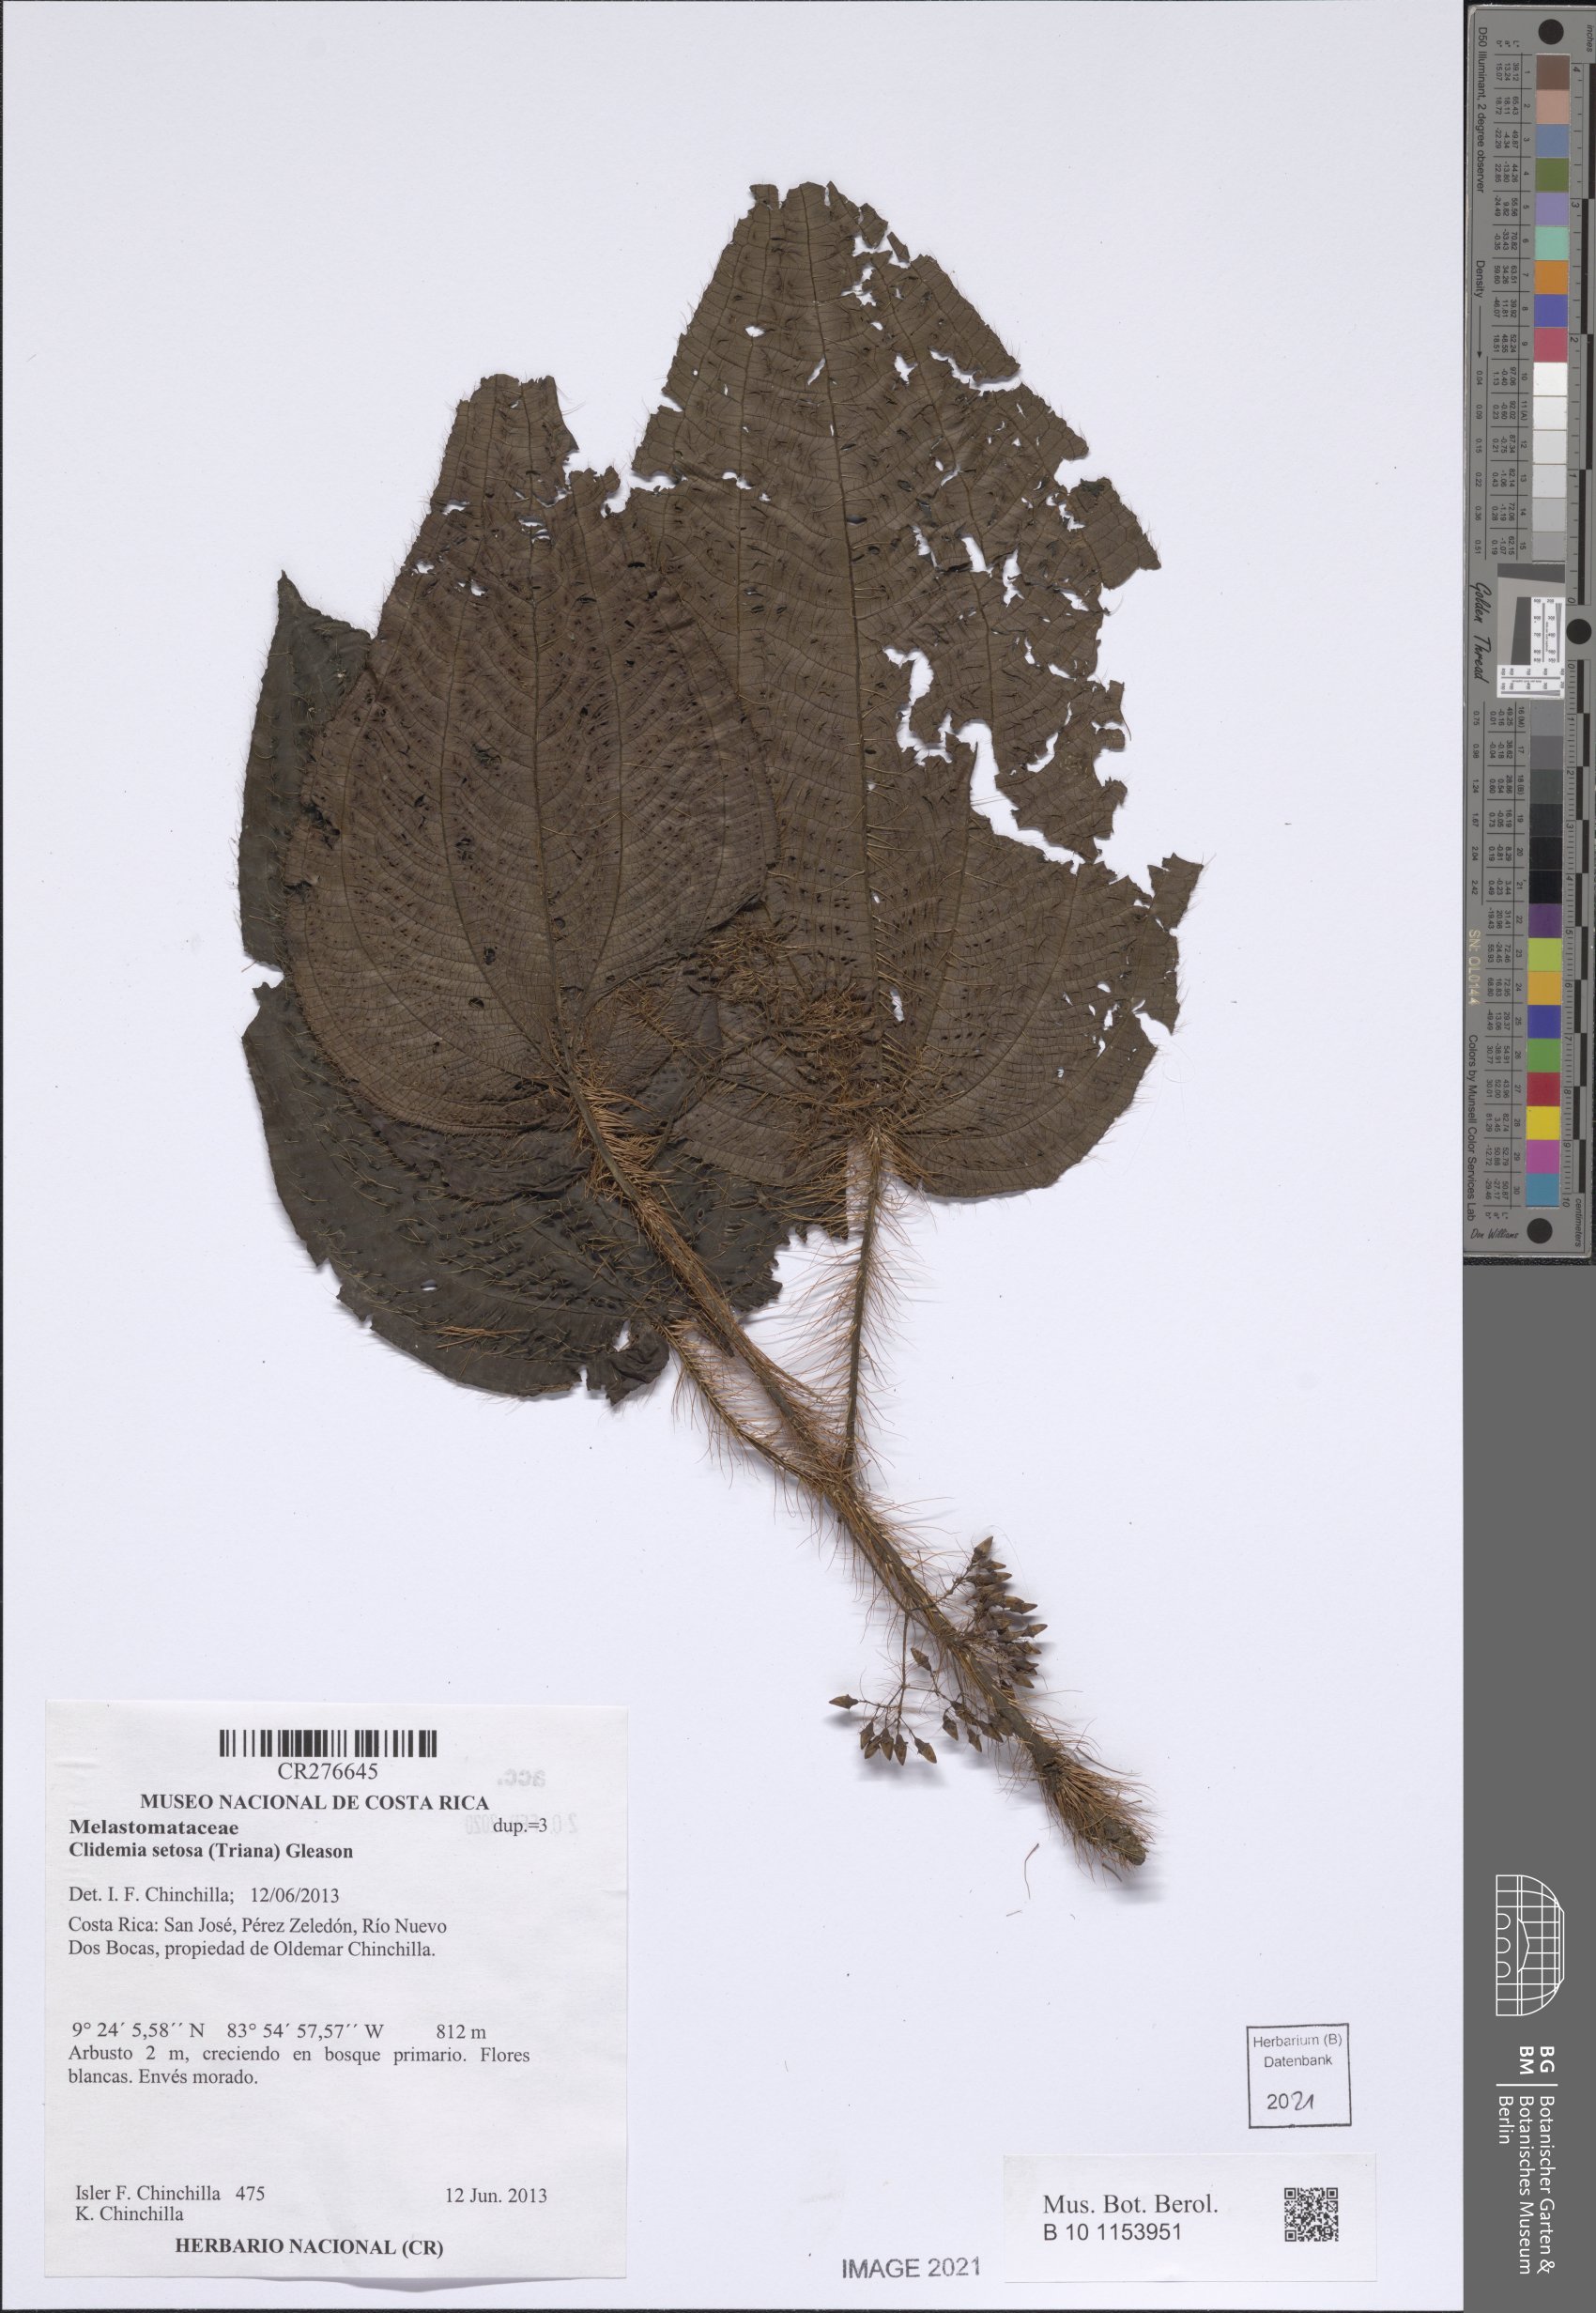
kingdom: Plantae
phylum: Tracheophyta
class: Magnoliopsida
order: Myrtales
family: Melastomataceae
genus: Miconia
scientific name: Miconia formicosetosa
